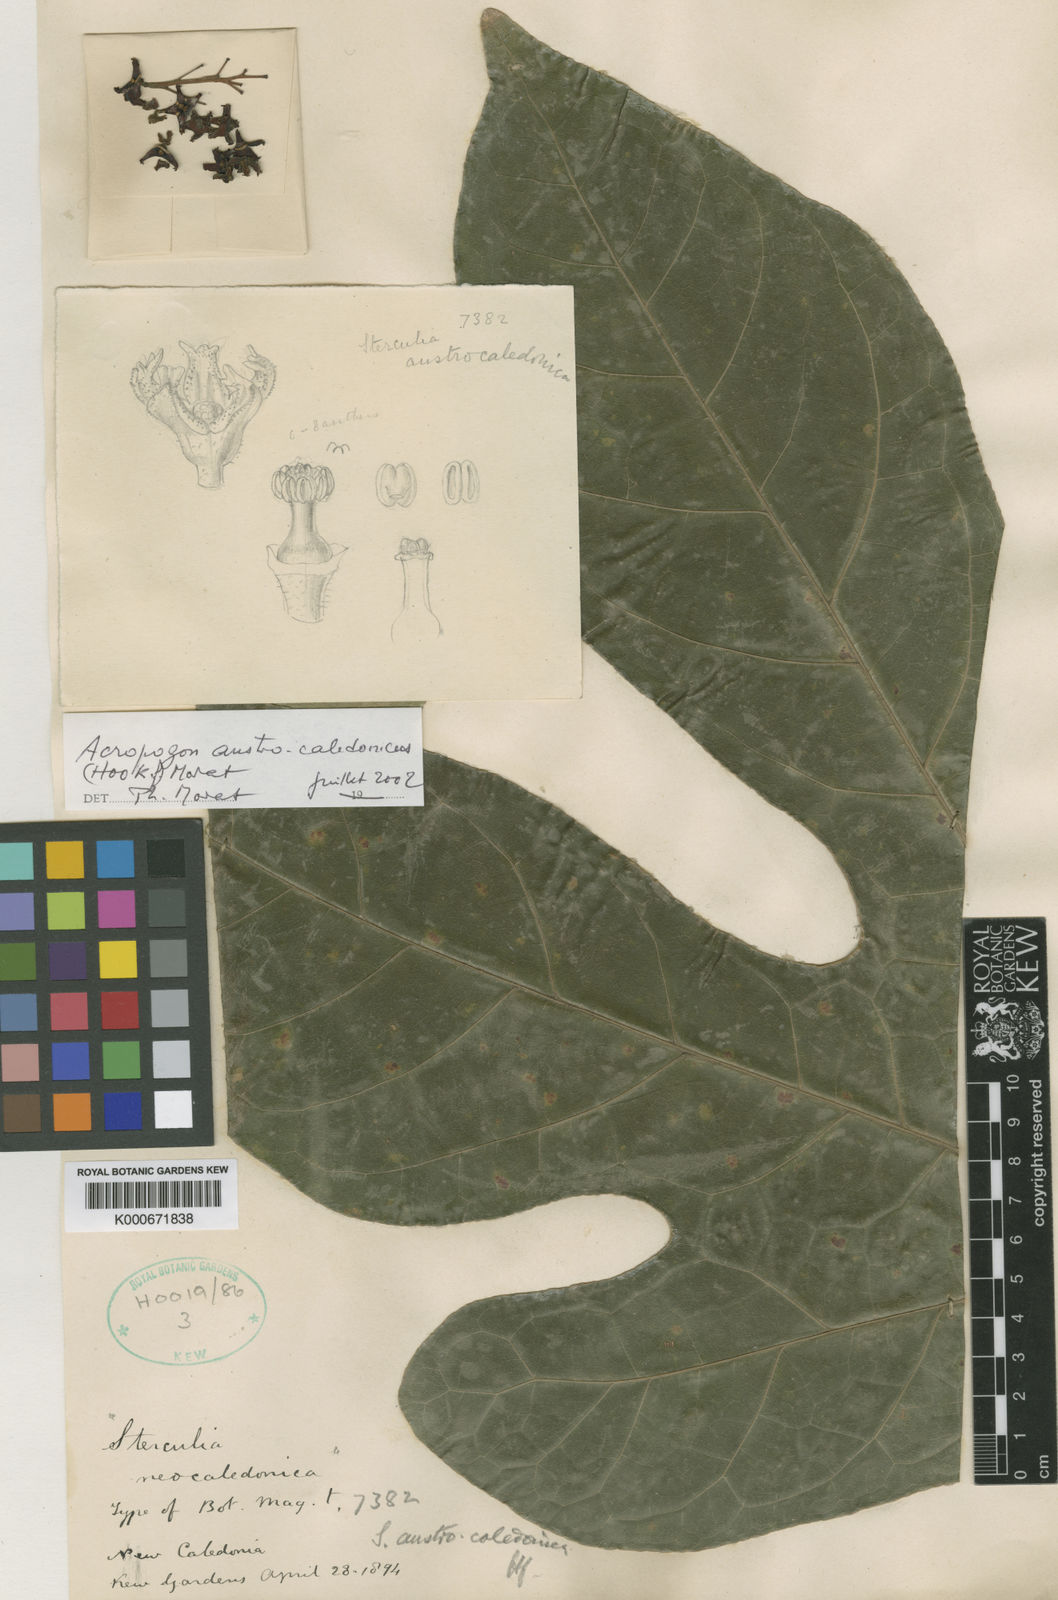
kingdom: Plantae
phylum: Tracheophyta
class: Magnoliopsida
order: Malvales
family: Malvaceae
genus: Acropogon
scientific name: Acropogon austrocaledonicus
